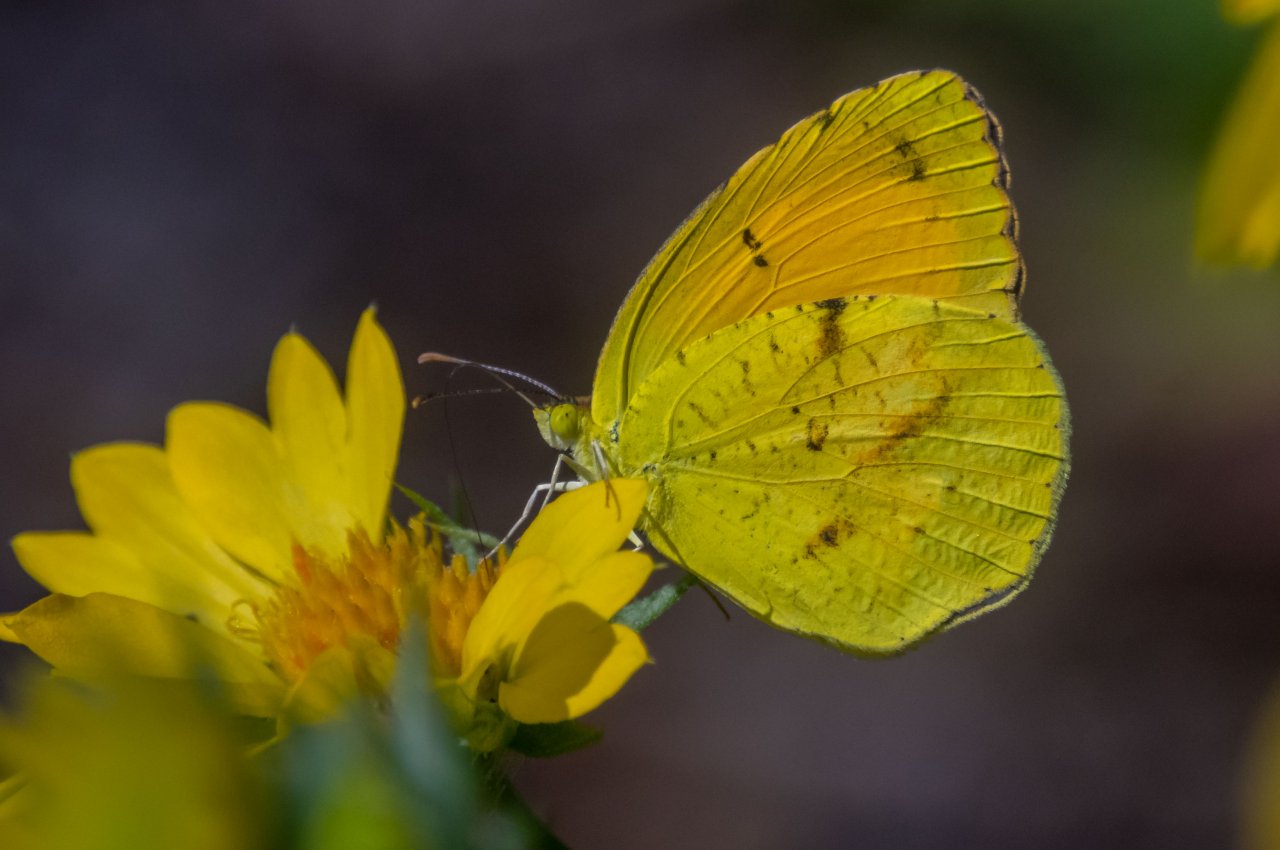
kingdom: Animalia
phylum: Arthropoda
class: Insecta
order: Lepidoptera
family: Pieridae
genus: Abaeis
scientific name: Abaeis nicippe
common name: Sleepy Orange
